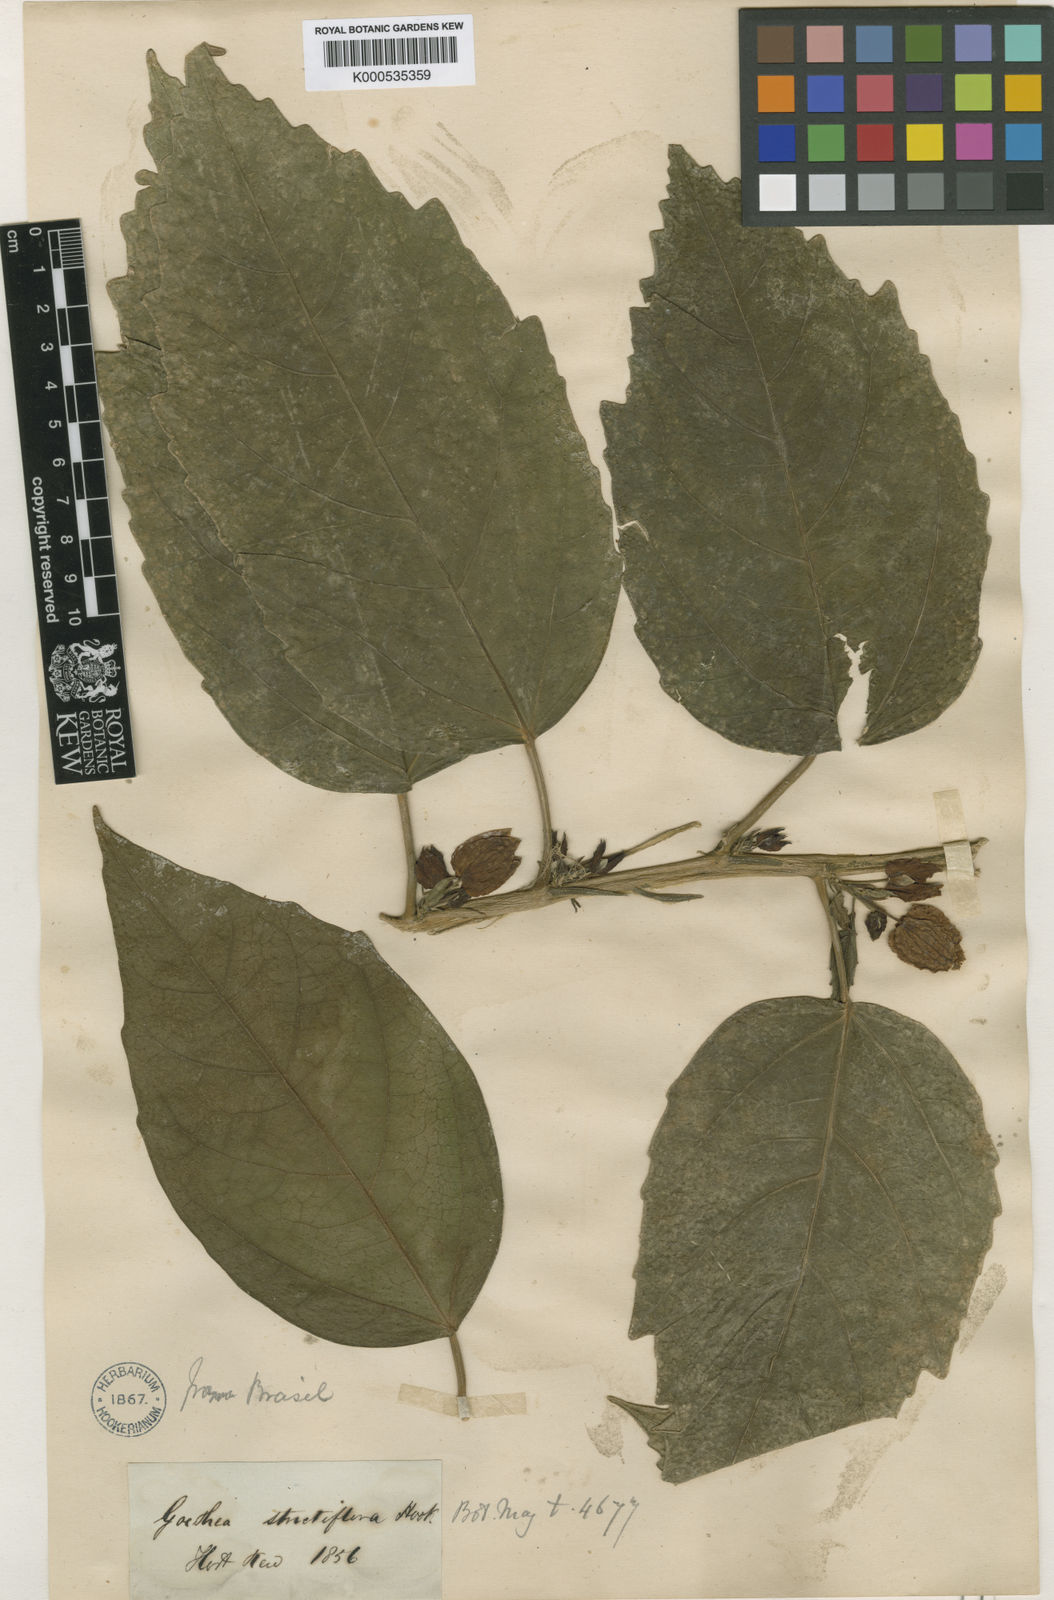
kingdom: Plantae
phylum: Tracheophyta
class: Magnoliopsida
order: Malvales
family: Malvaceae
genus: Pavonia
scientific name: Pavonia strictiflora
